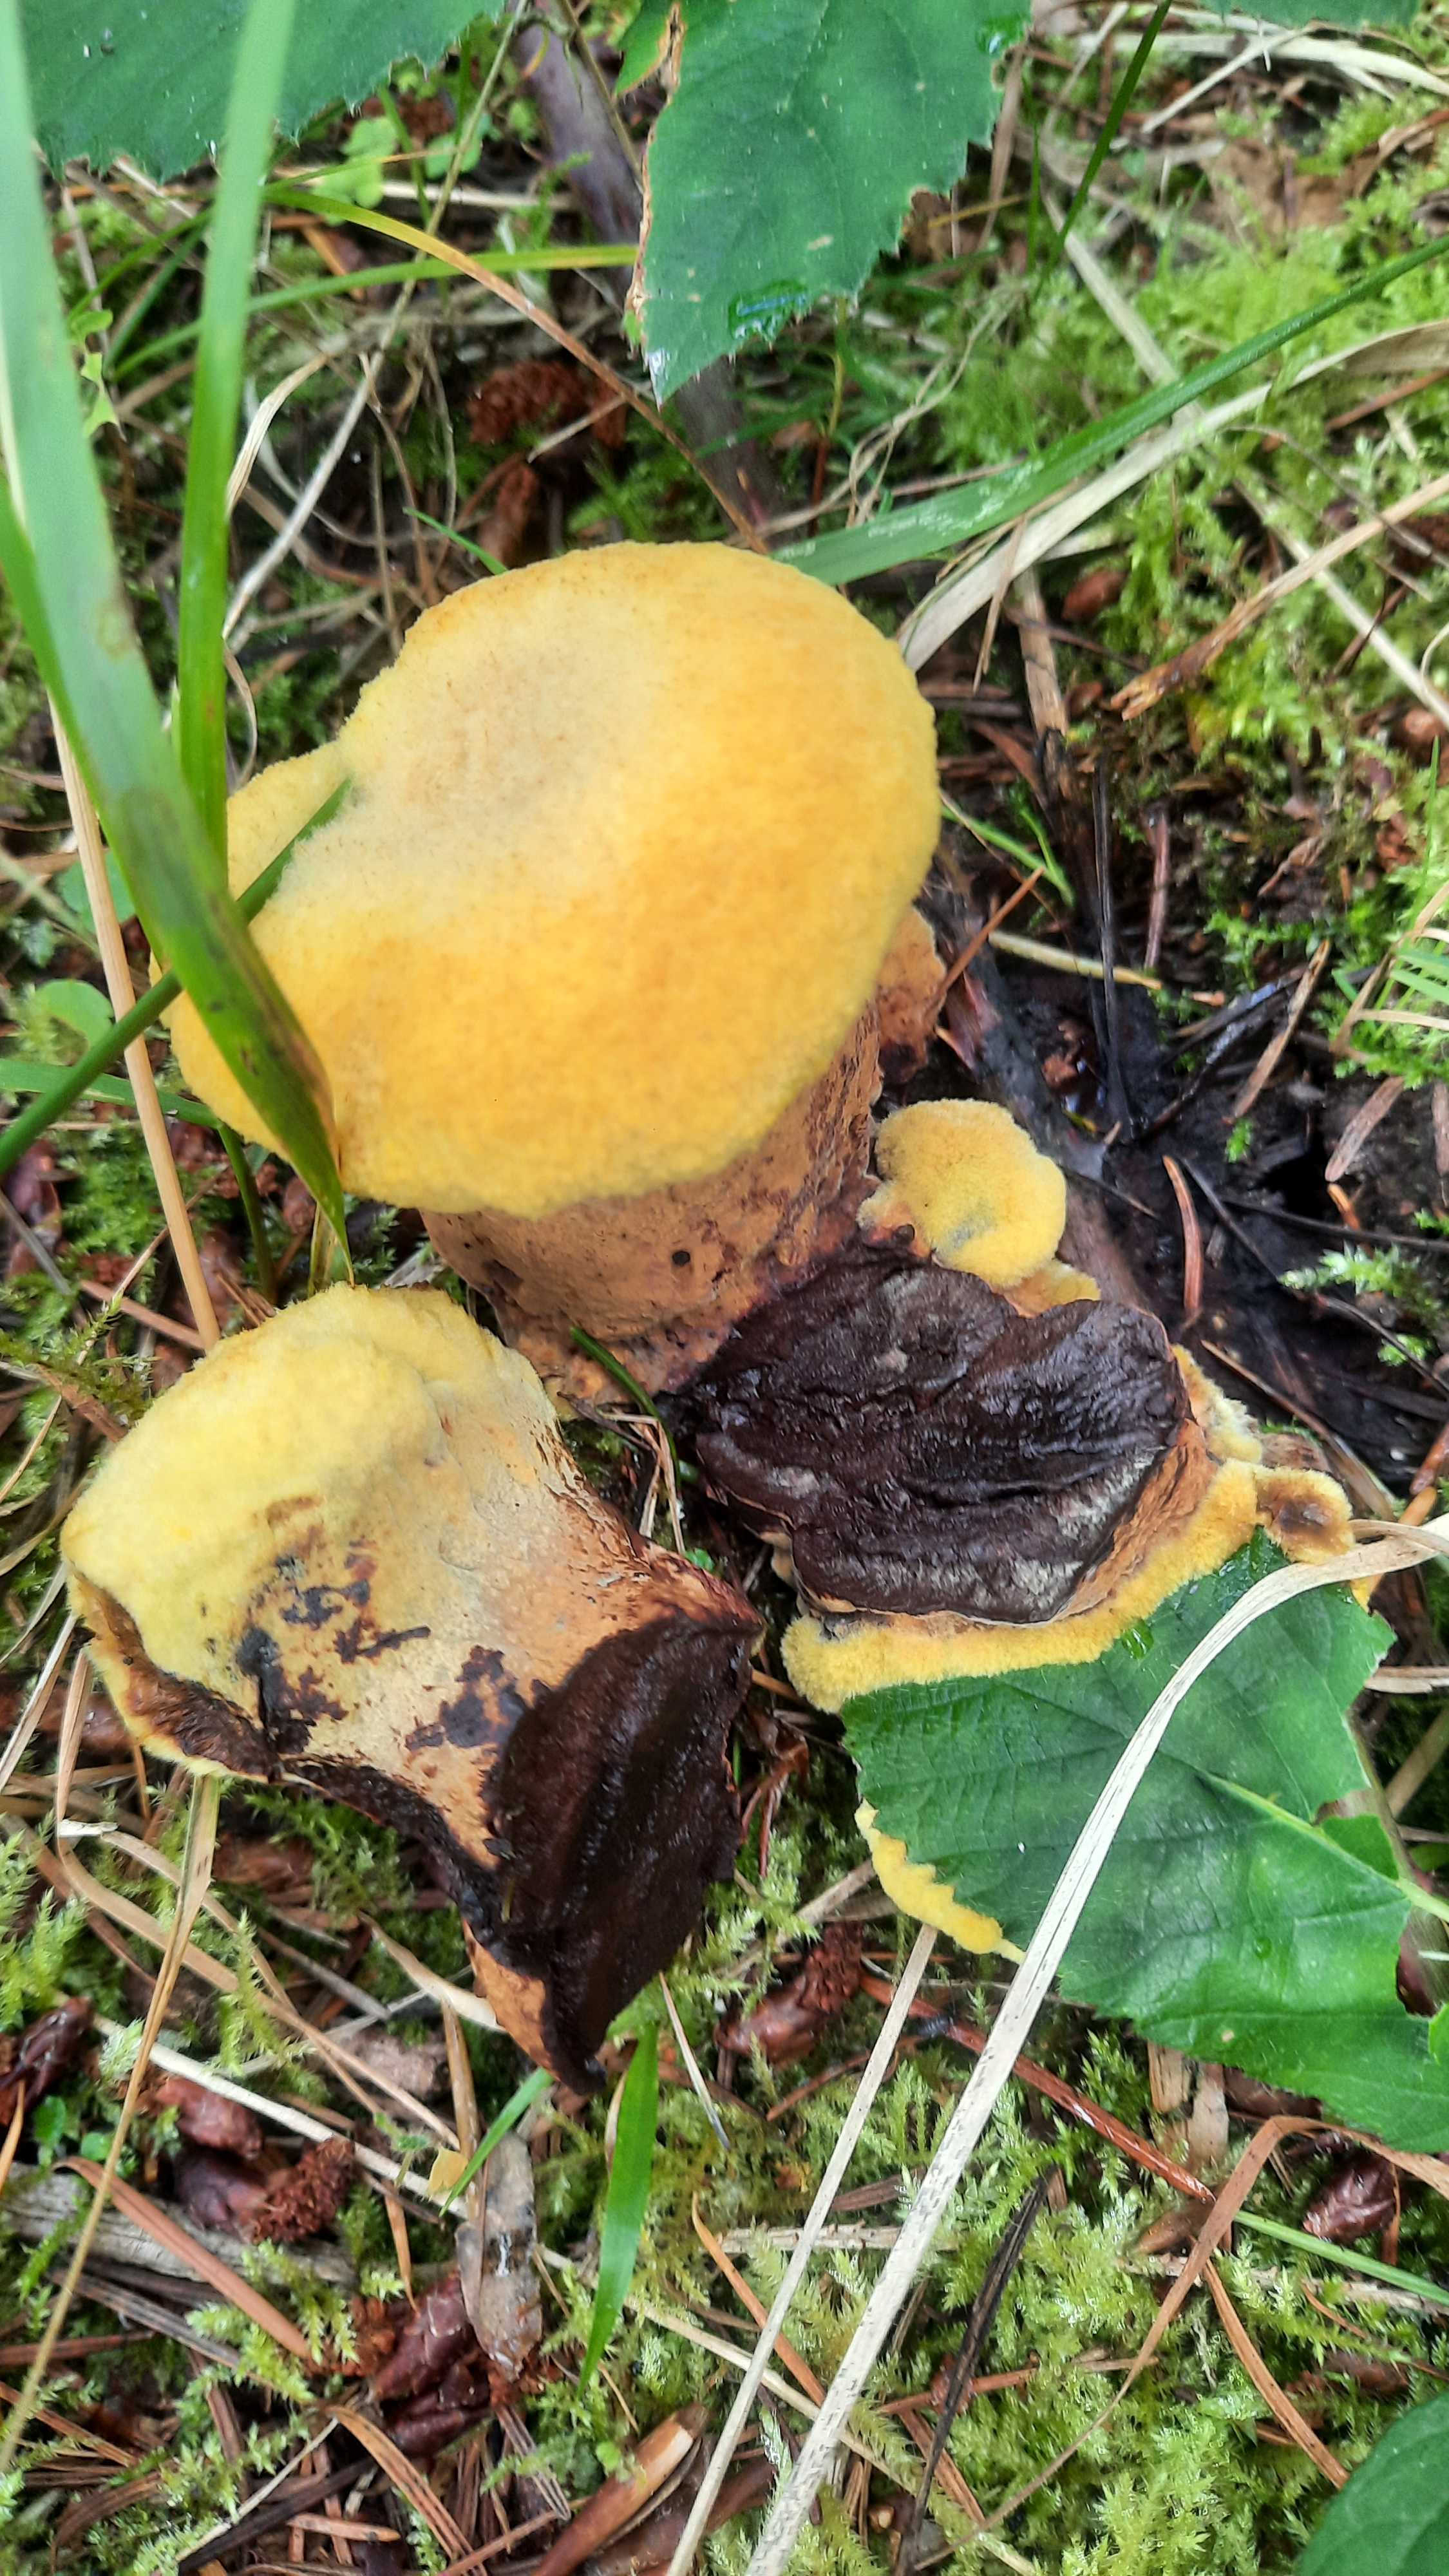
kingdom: Fungi
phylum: Basidiomycota
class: Agaricomycetes
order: Polyporales
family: Laetiporaceae
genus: Phaeolus
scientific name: Phaeolus schweinitzii
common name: brunporesvamp
